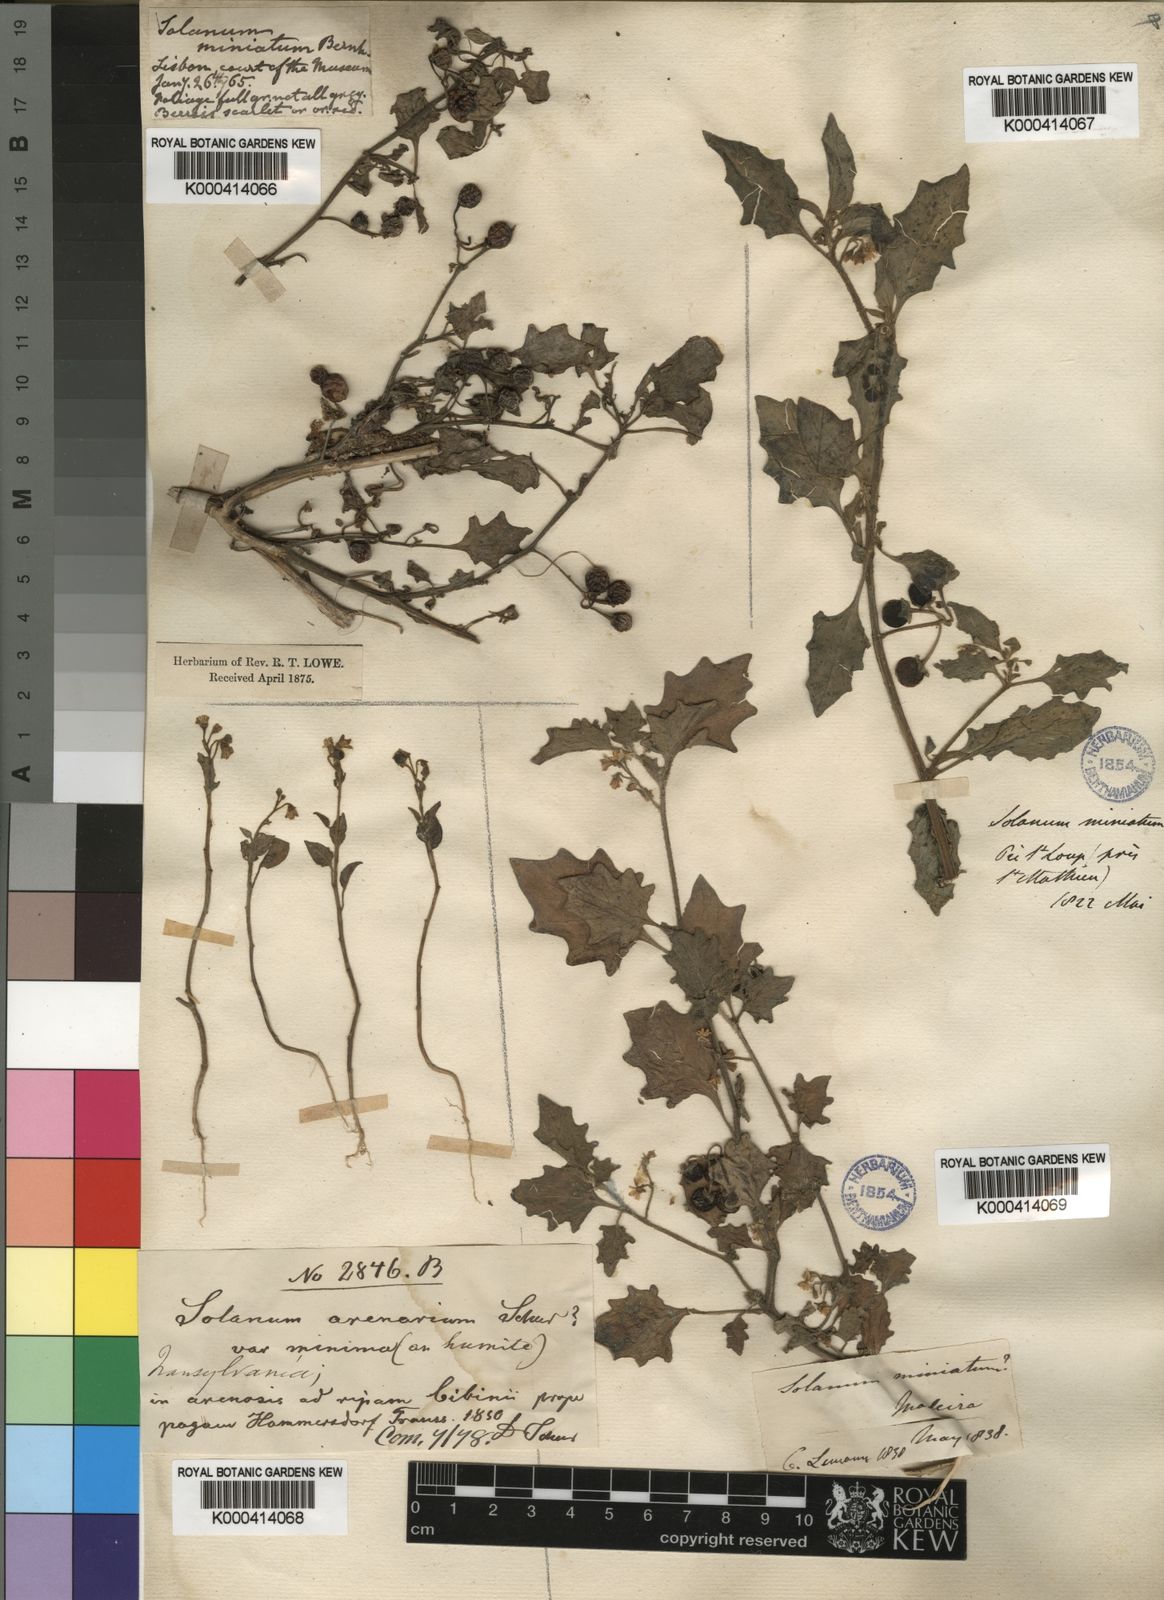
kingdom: Plantae
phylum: Tracheophyta
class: Magnoliopsida
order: Solanales
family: Solanaceae
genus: Solanum
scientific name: Solanum nigrum
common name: Black nightshade
